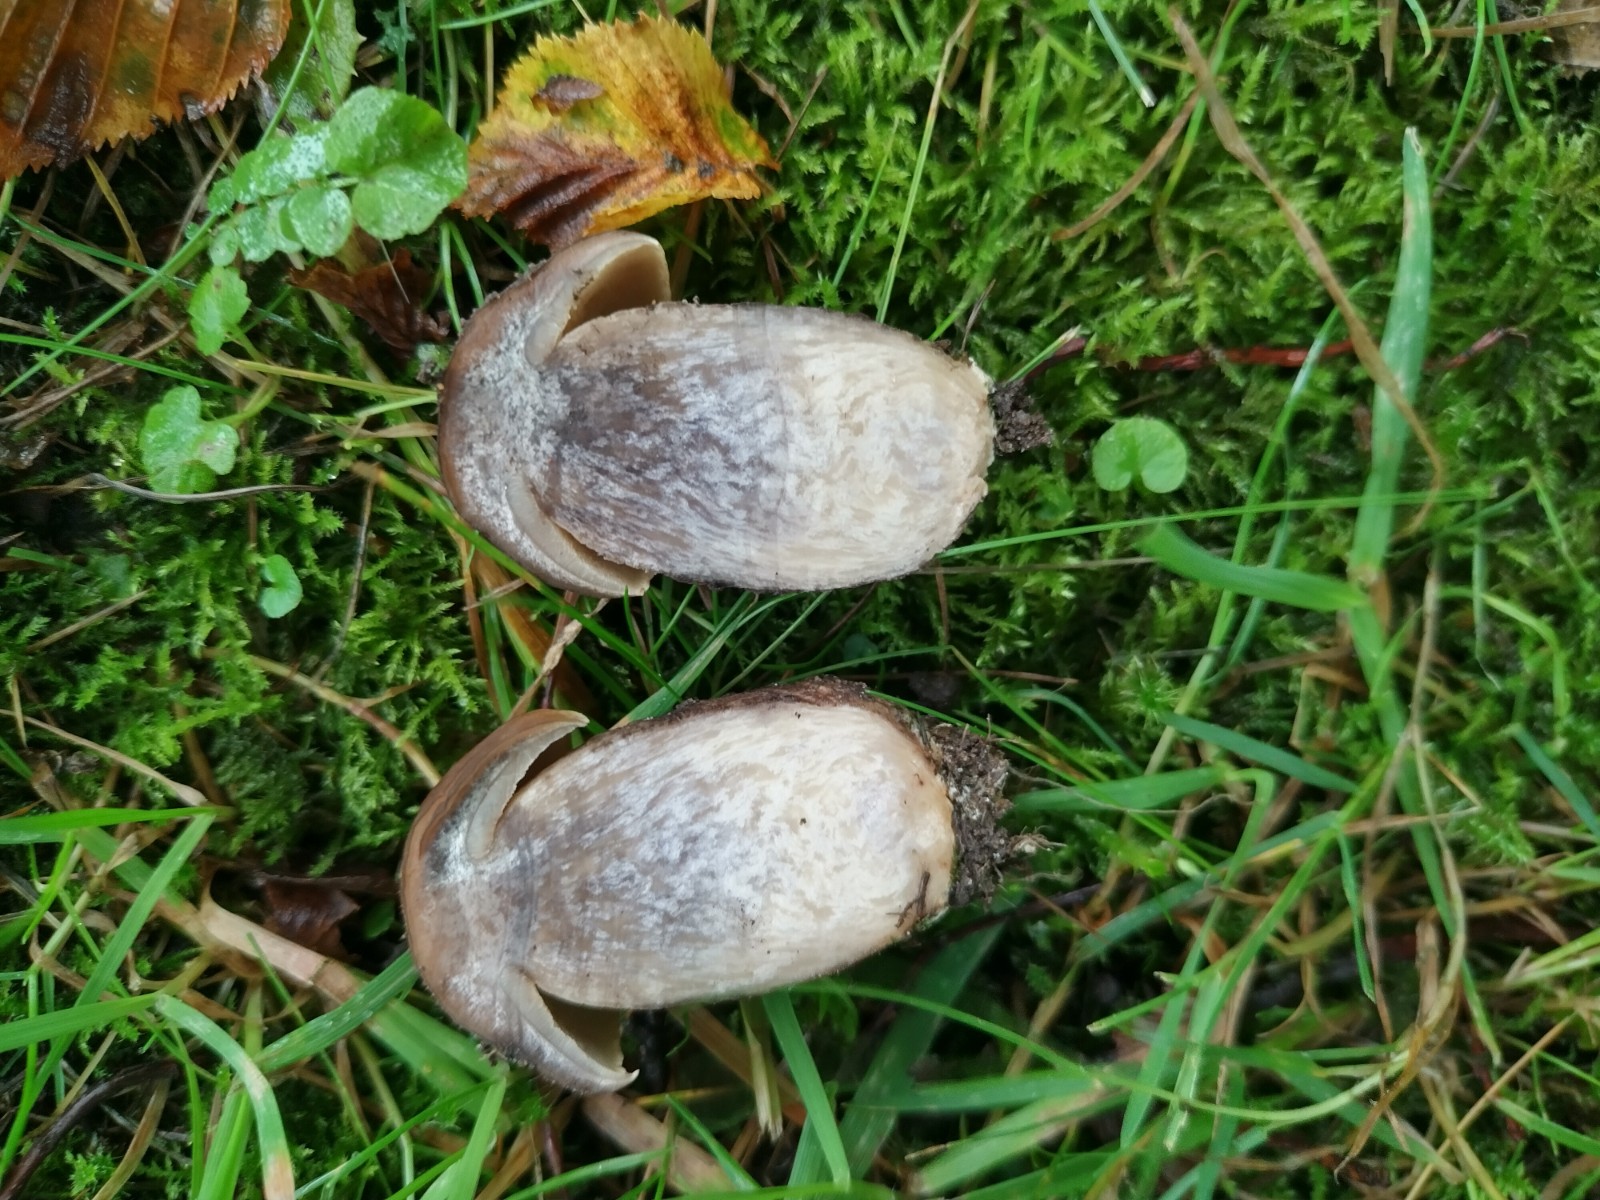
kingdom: Fungi
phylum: Basidiomycota
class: Agaricomycetes
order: Boletales
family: Boletaceae
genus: Leccinellum
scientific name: Leccinellum pseudoscabrum
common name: avnbøg-skælrørhat
